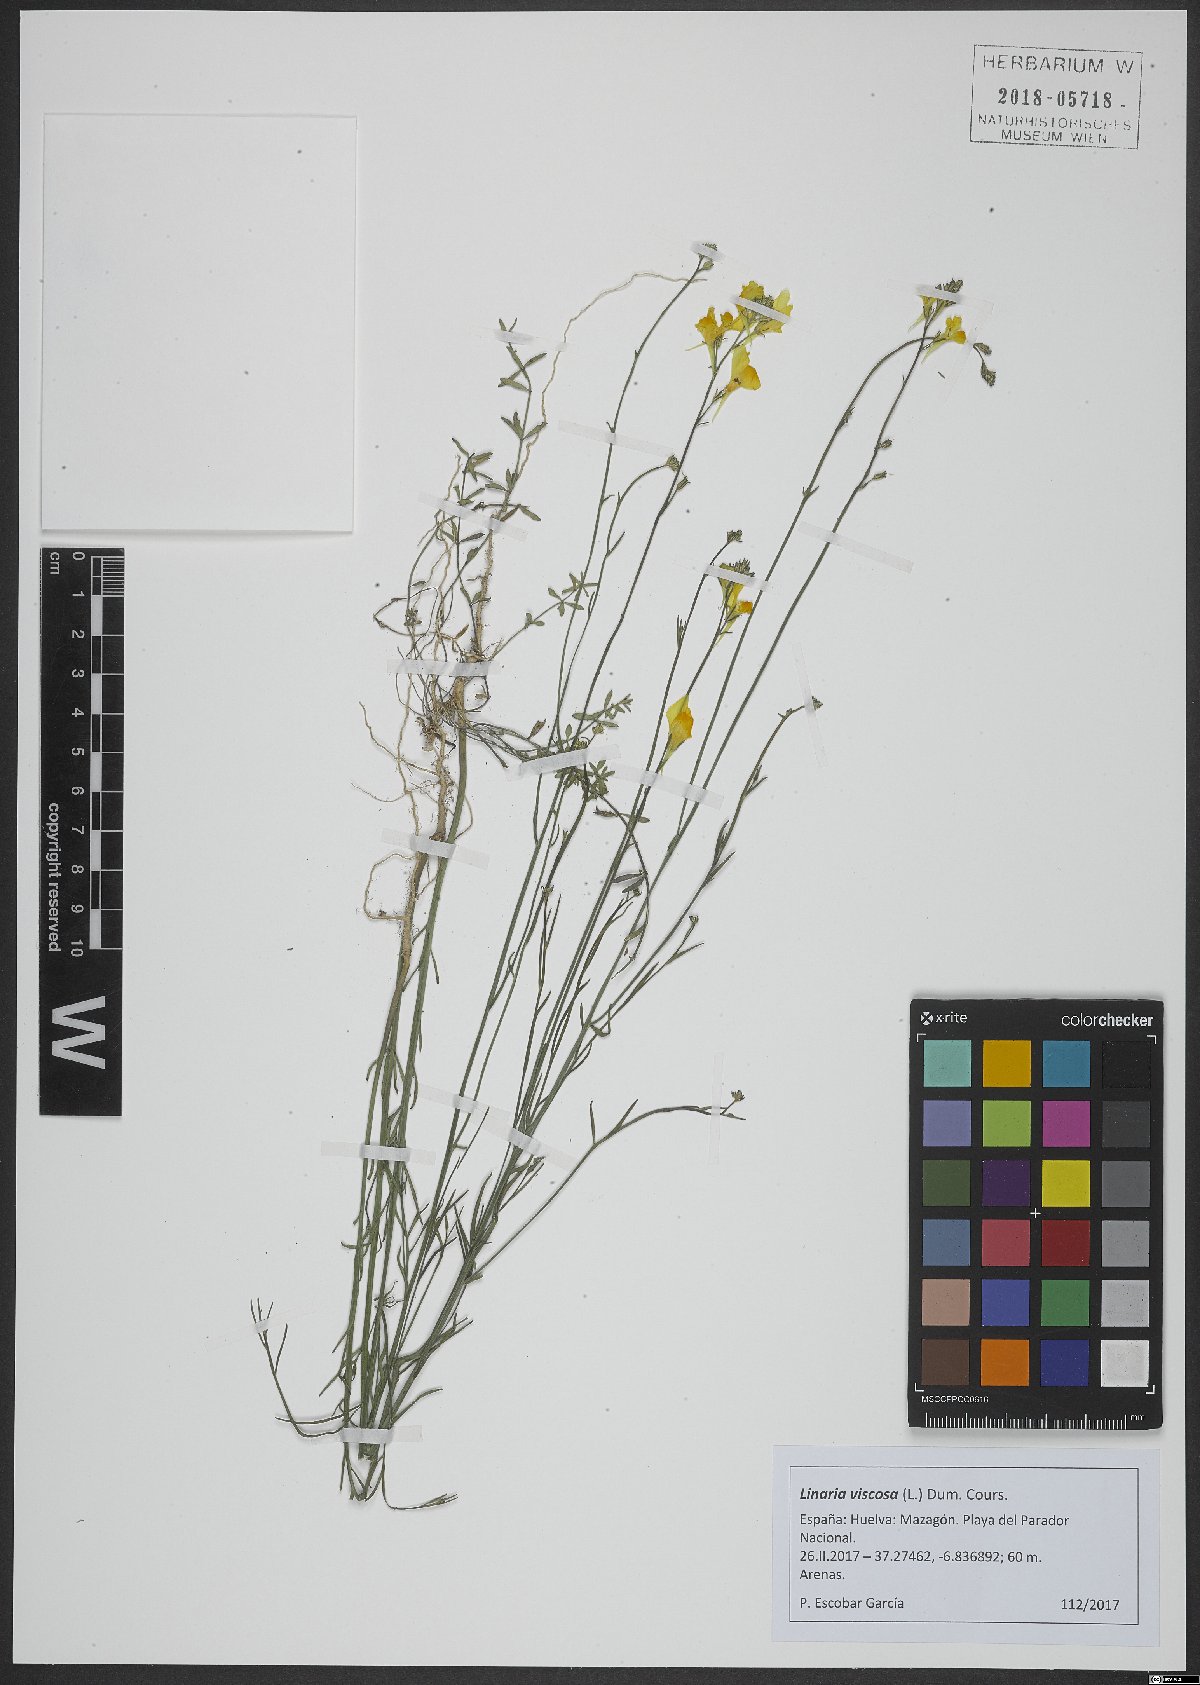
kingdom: Plantae
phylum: Tracheophyta
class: Magnoliopsida
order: Lamiales
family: Plantaginaceae
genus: Linaria
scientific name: Linaria viscosa
